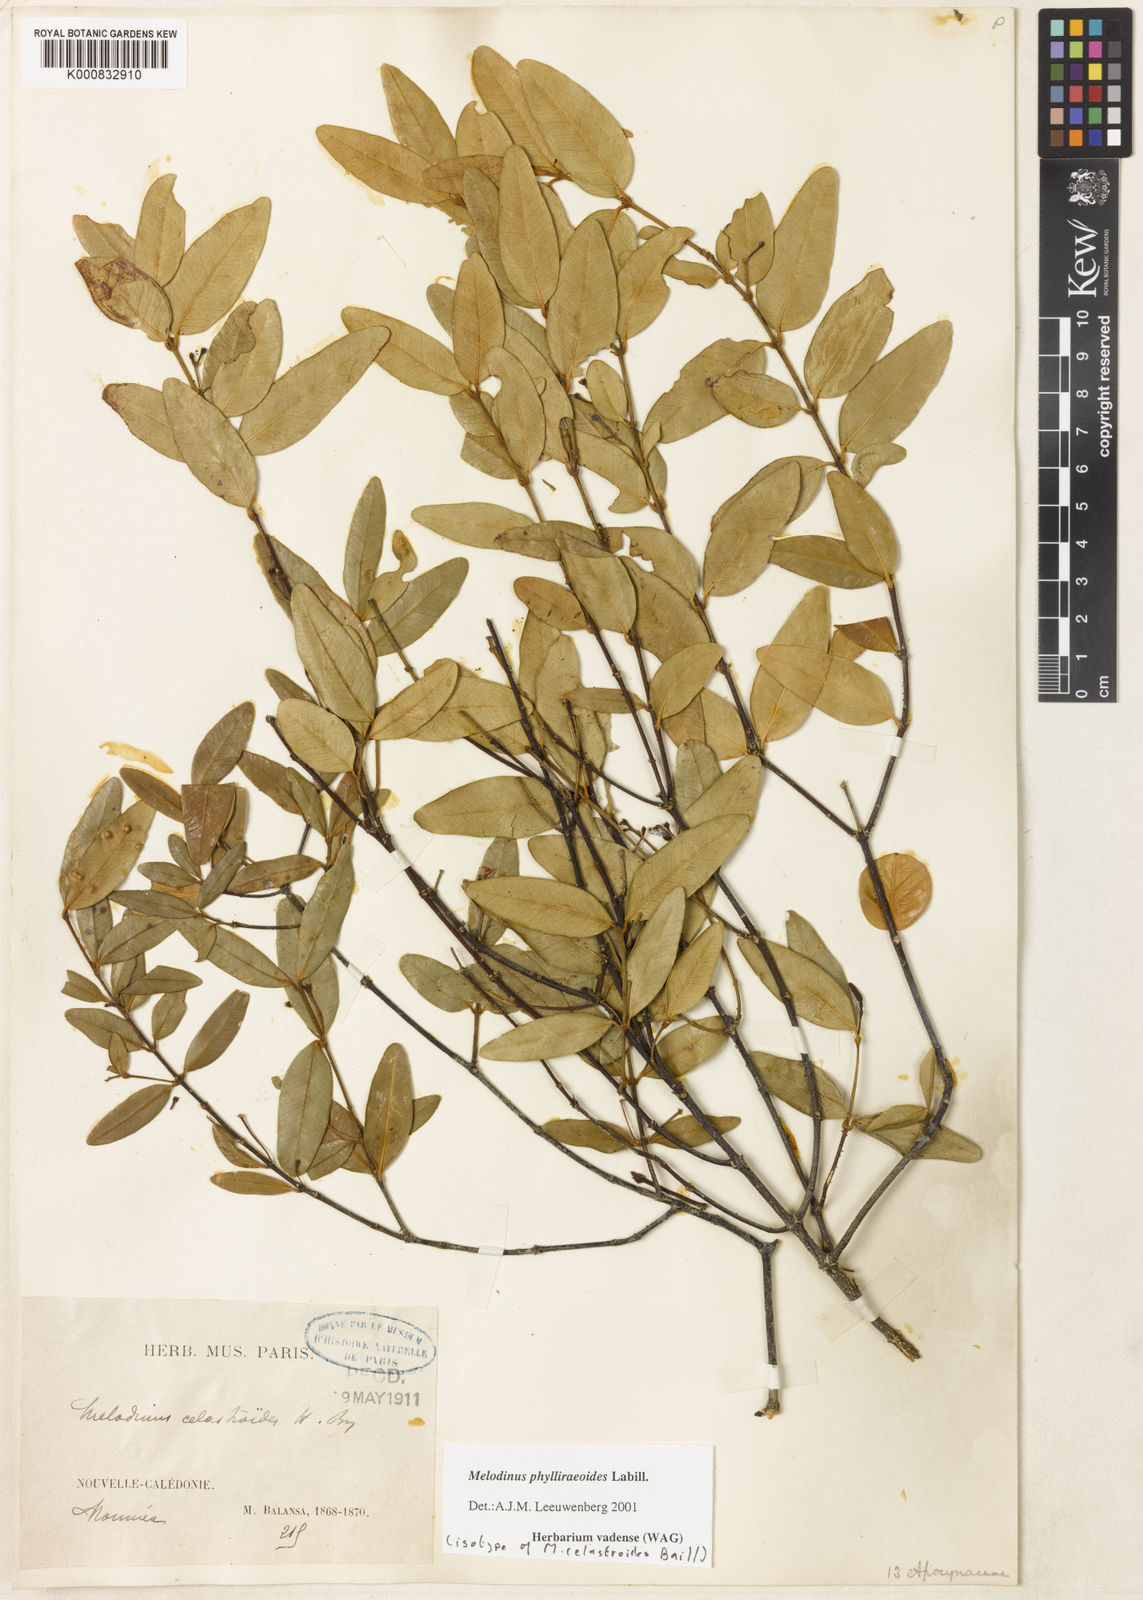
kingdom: Plantae
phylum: Tracheophyta
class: Magnoliopsida
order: Gentianales
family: Apocynaceae
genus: Melodinus
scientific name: Melodinus
